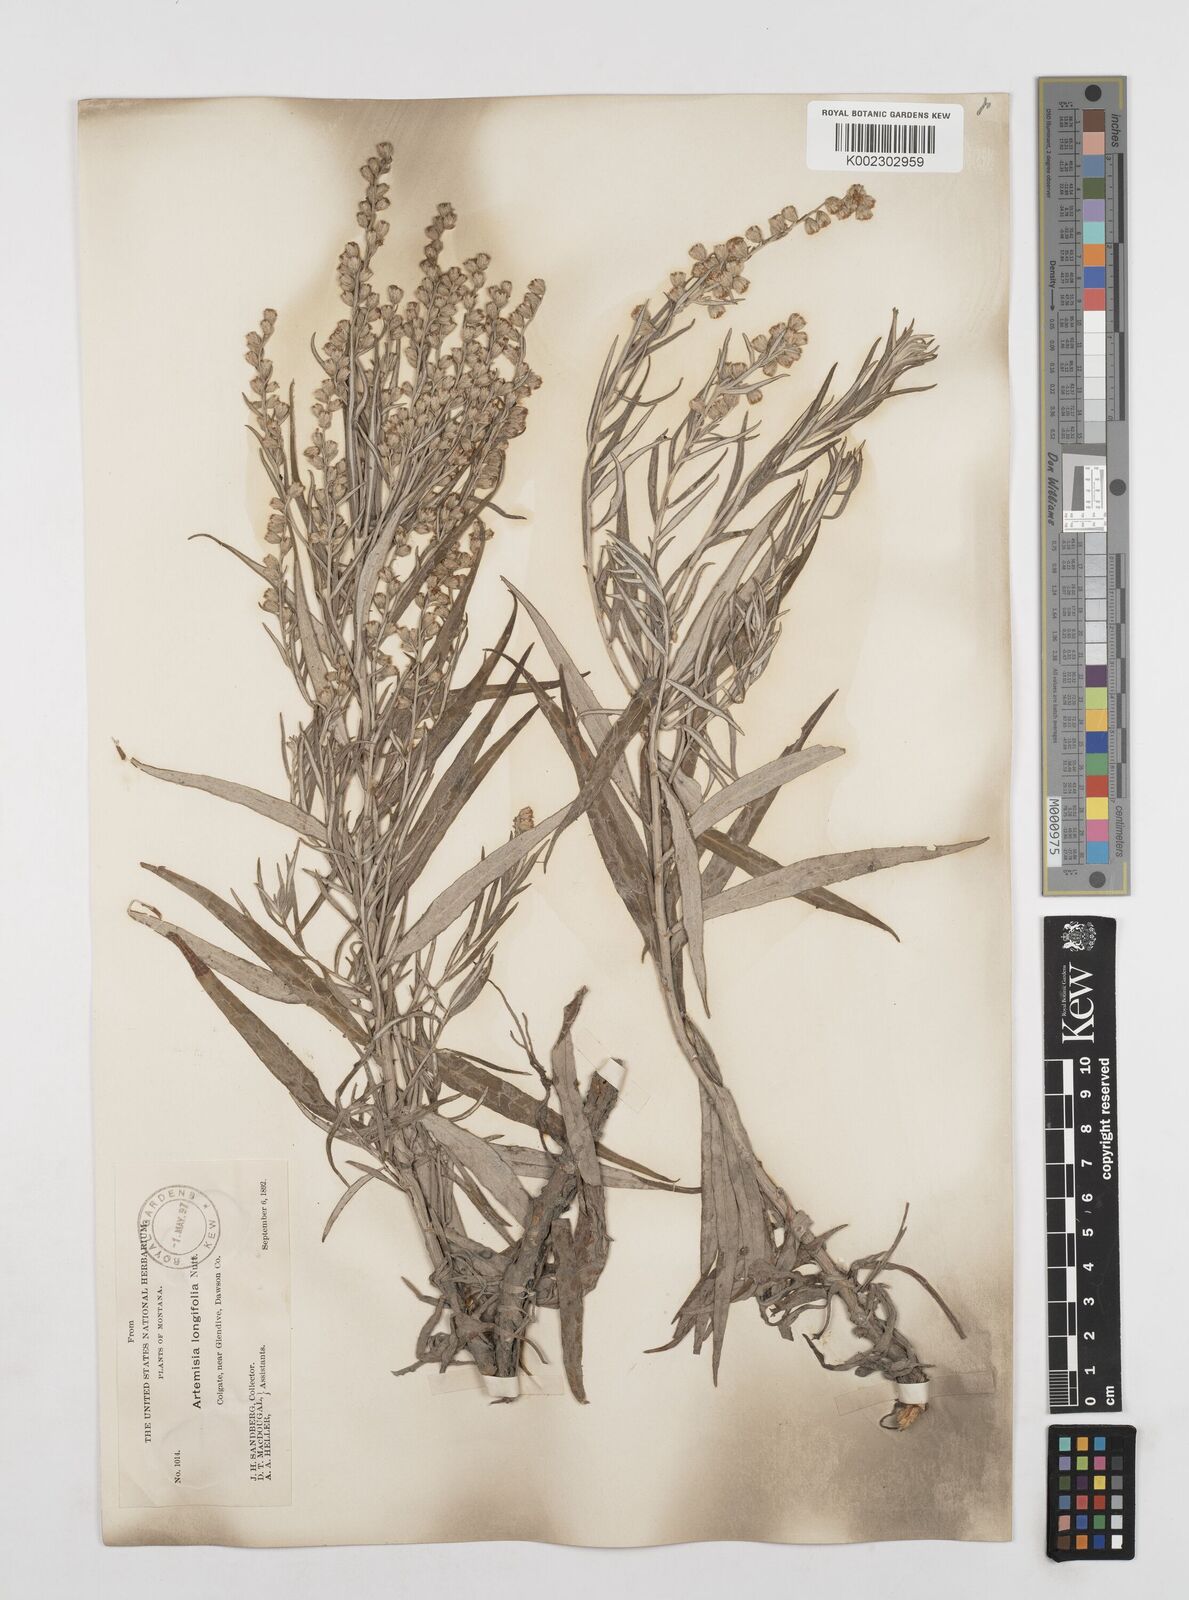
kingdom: Plantae
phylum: Tracheophyta
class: Magnoliopsida
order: Asterales
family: Asteraceae
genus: Artemisia
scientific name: Artemisia longifolia
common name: Long-leaved mugwort
